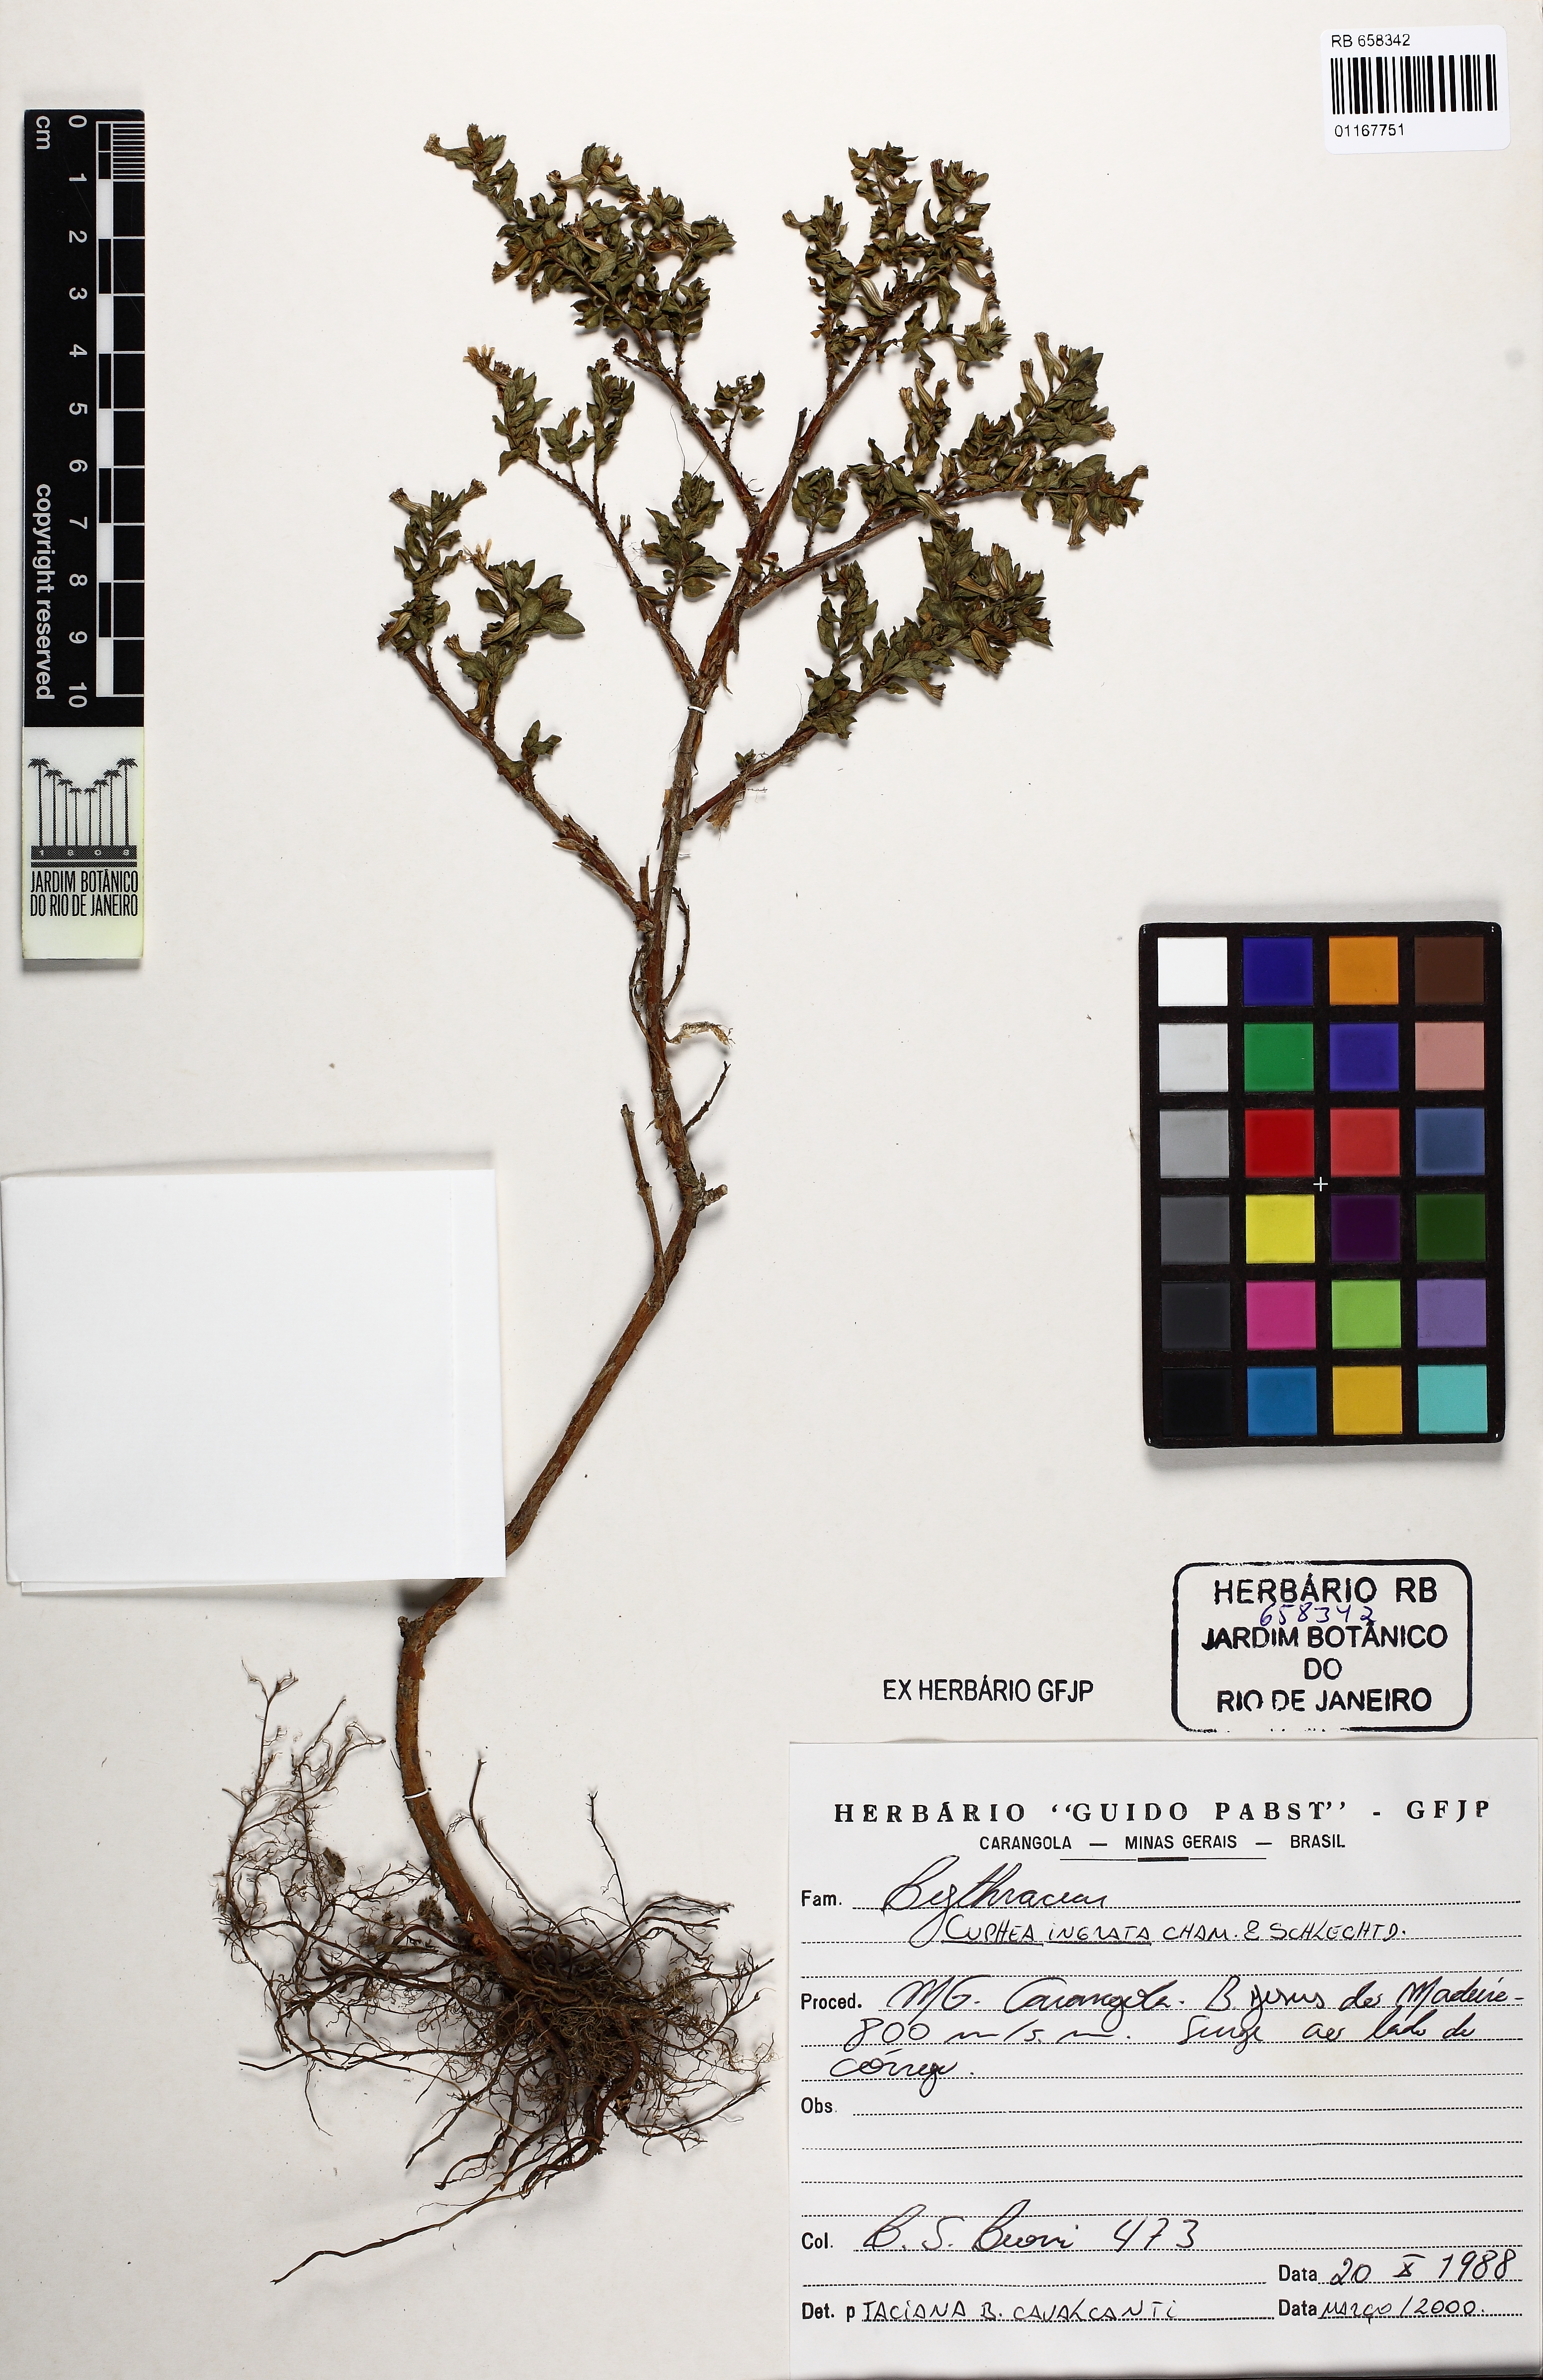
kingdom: Plantae
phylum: Tracheophyta
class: Magnoliopsida
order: Myrtales
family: Lythraceae
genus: Cuphea
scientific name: Cuphea ingrata
